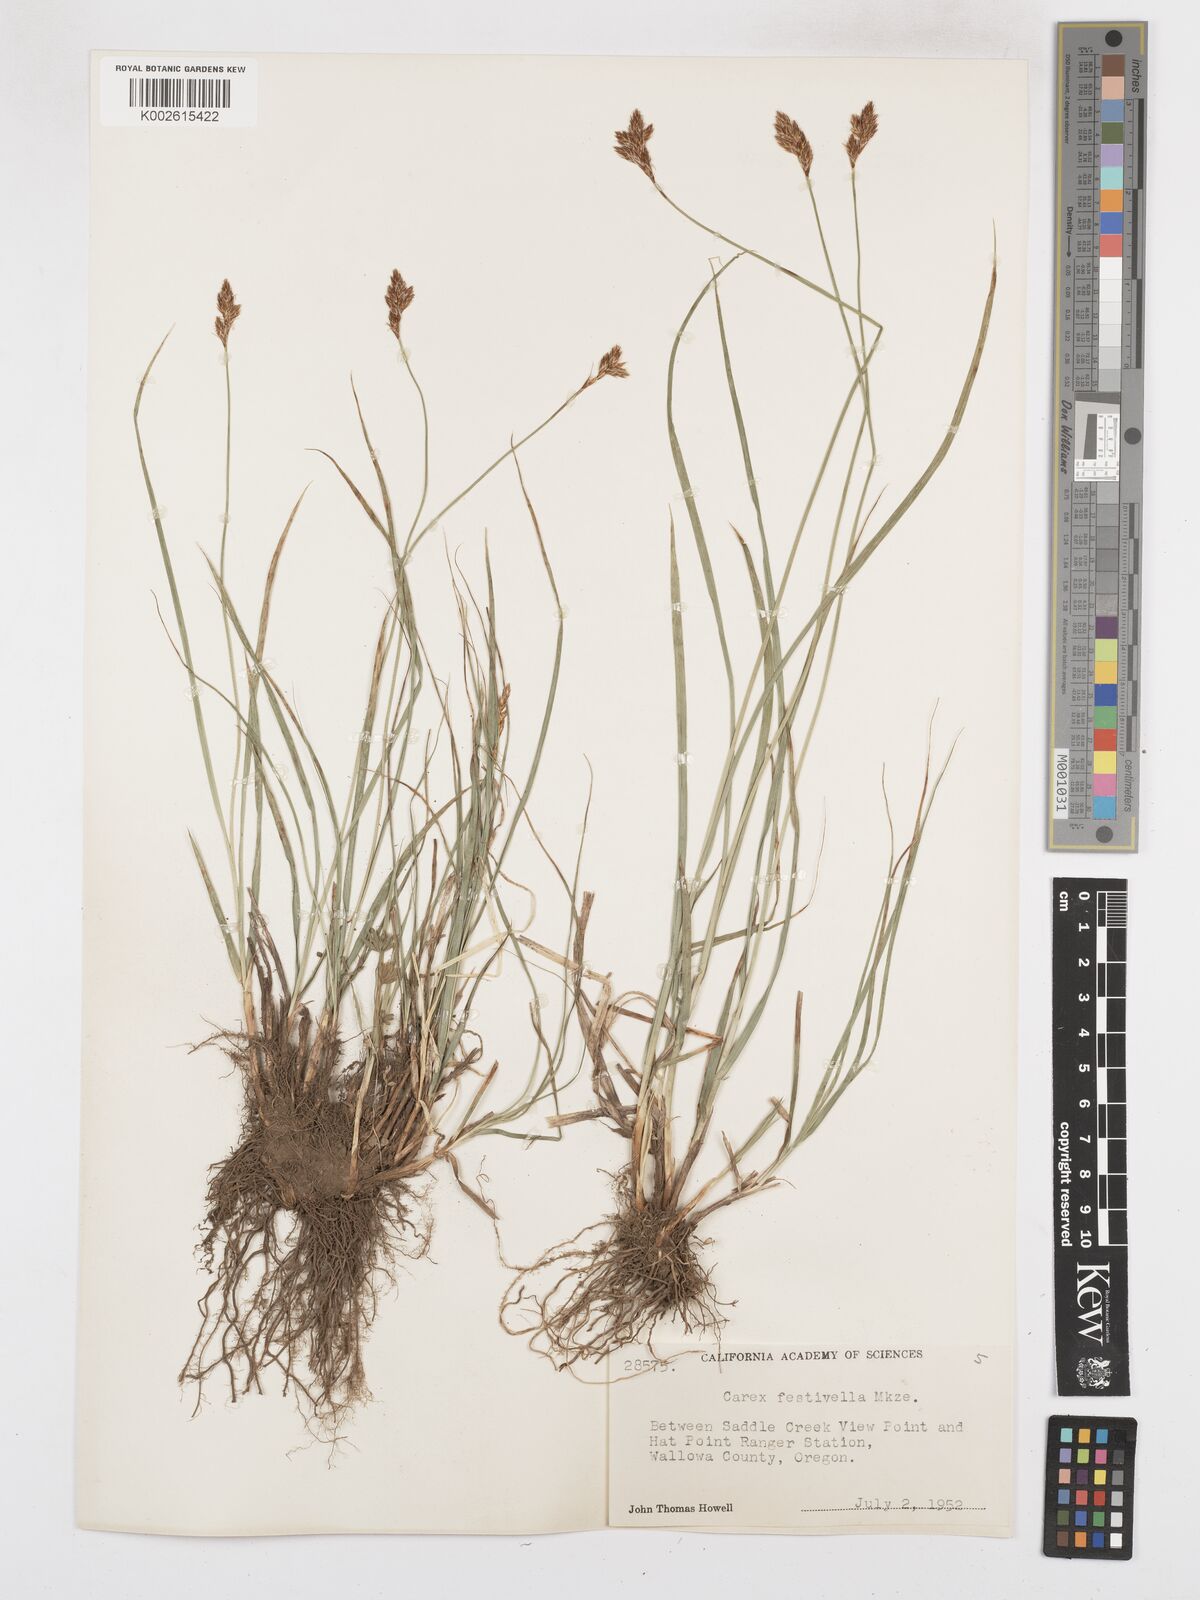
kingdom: Plantae
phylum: Tracheophyta
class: Liliopsida
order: Poales
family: Cyperaceae
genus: Carex
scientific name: Carex microptera
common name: Oval-headed sedge
